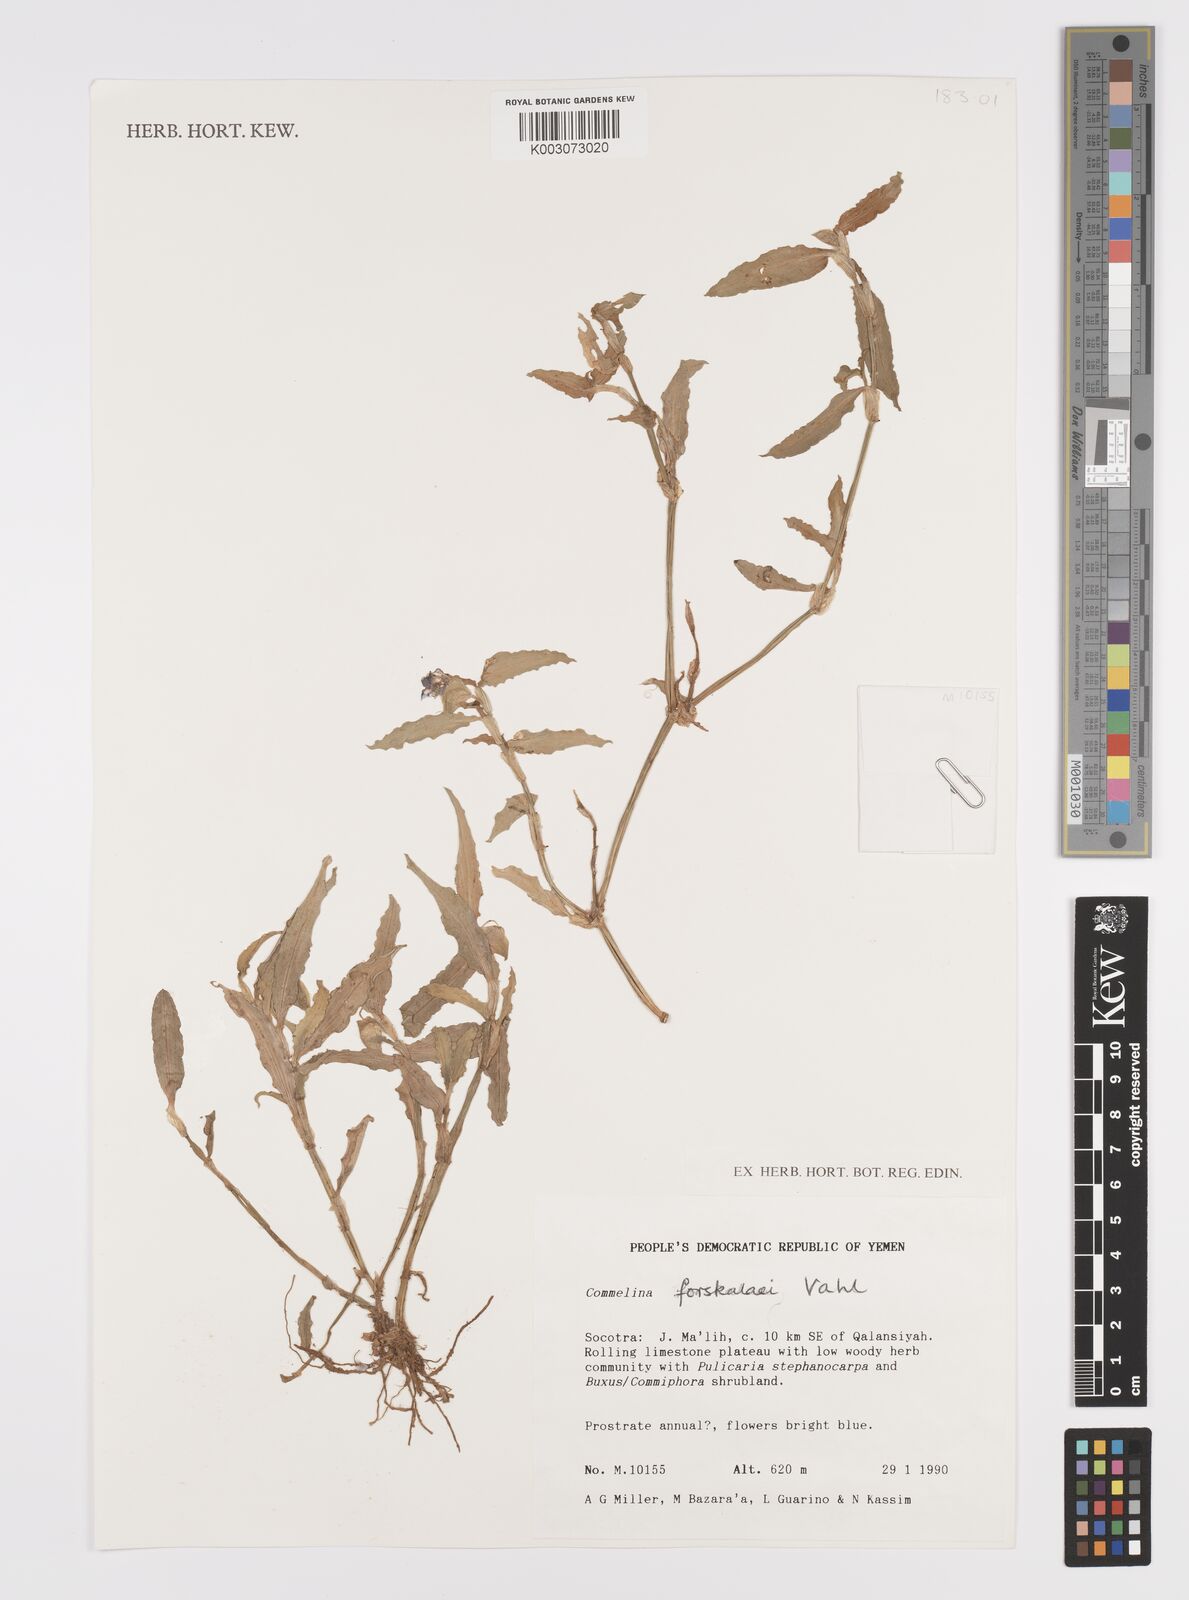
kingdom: Plantae
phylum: Tracheophyta
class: Liliopsida
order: Commelinales
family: Commelinaceae
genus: Commelina
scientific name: Commelina forskaolii
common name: Rat's ear
